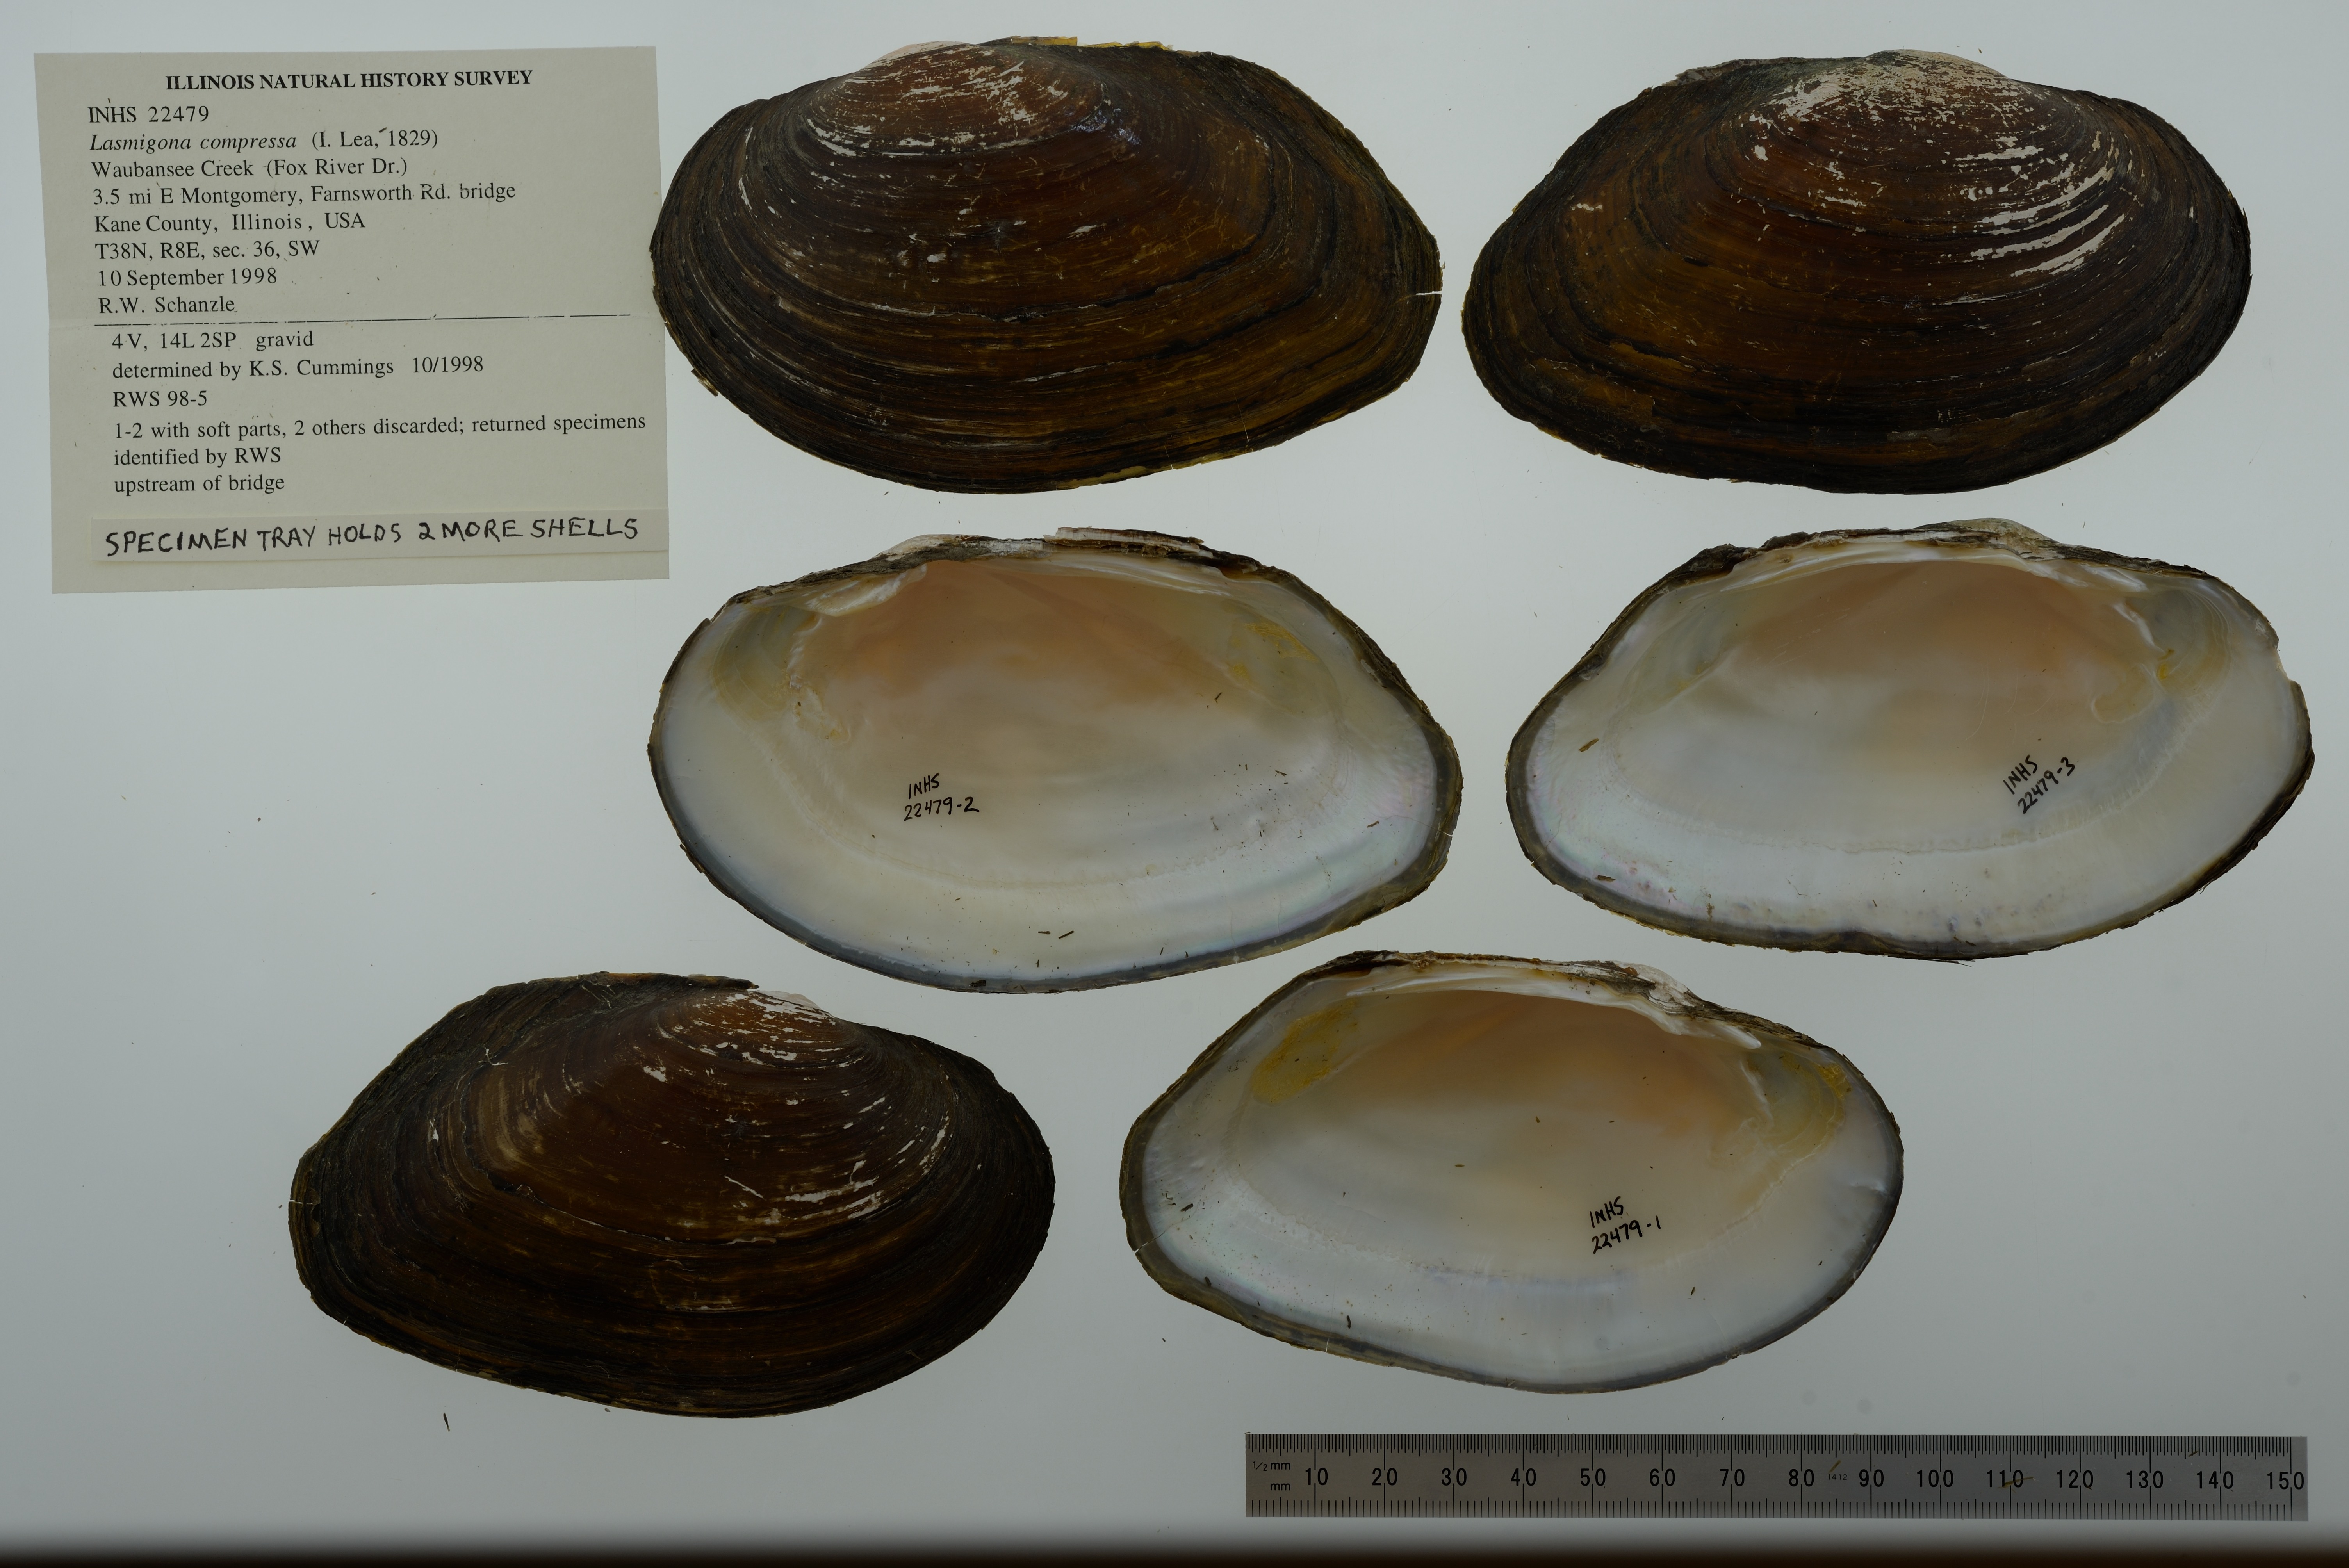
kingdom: Animalia
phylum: Mollusca
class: Bivalvia
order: Unionida
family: Unionidae
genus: Lasmigona
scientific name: Lasmigona compressa
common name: Creek heelsplitter
